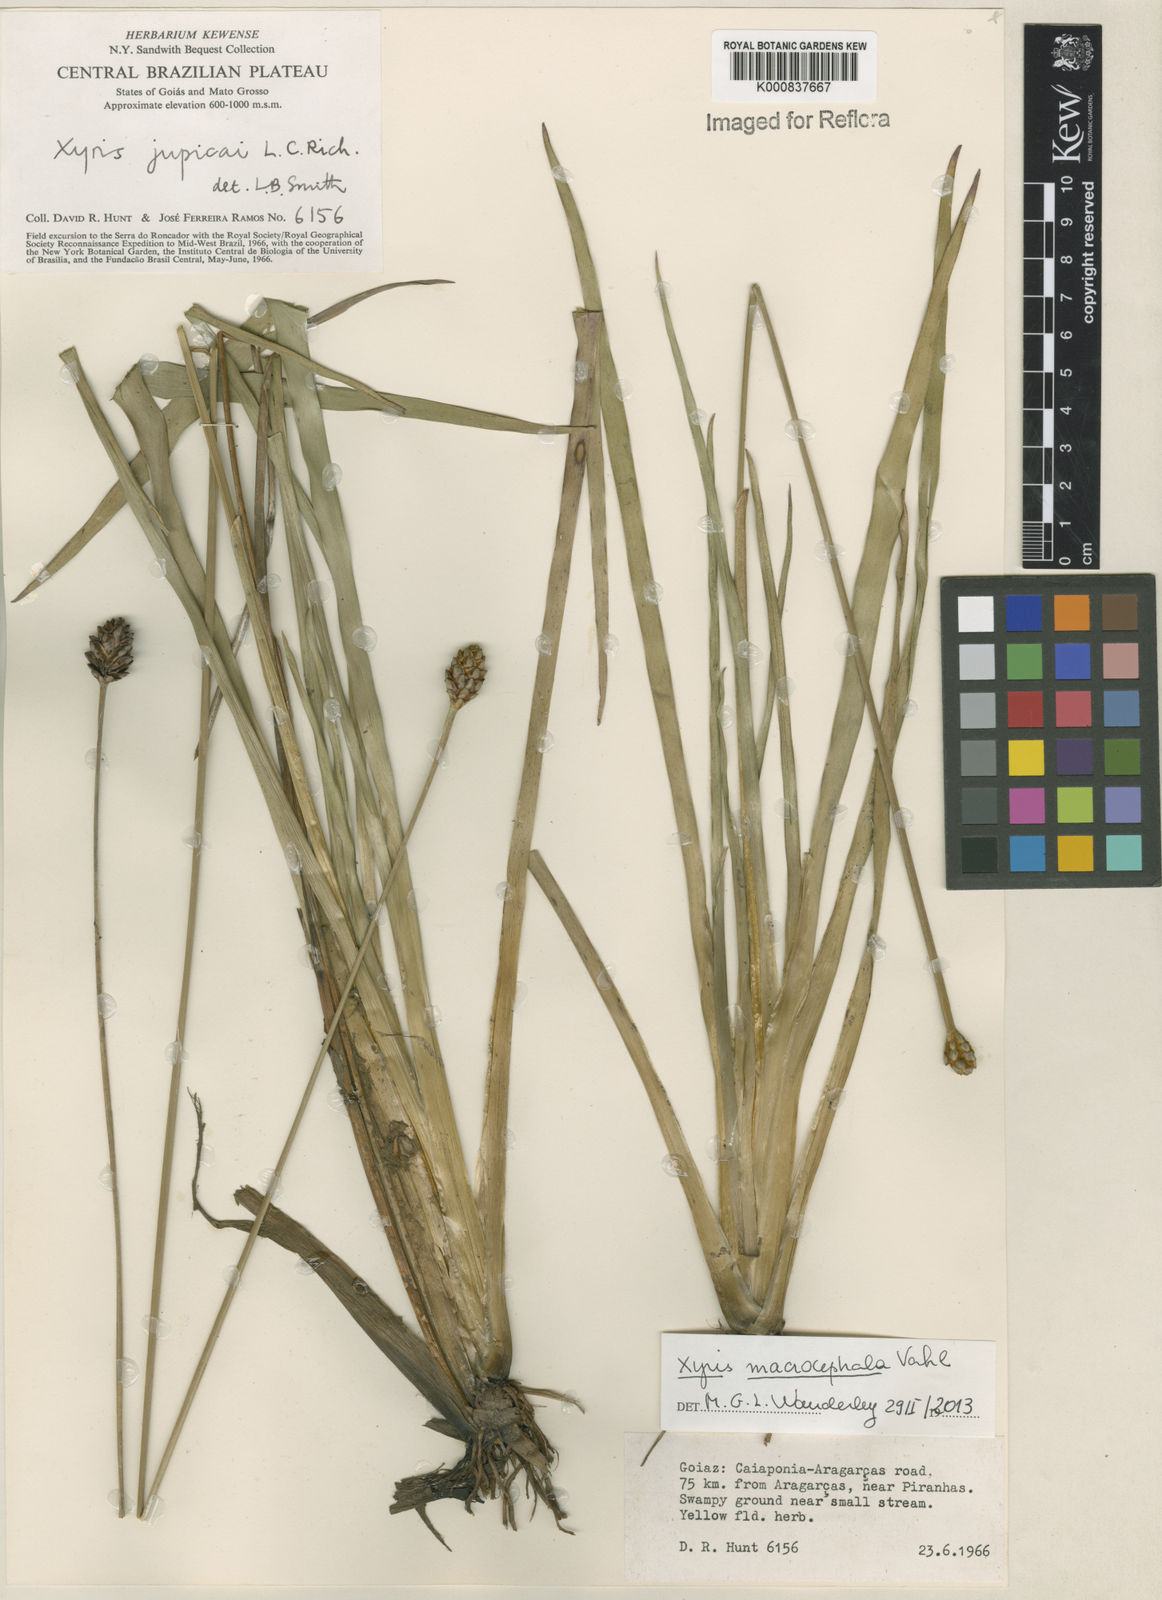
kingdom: Plantae
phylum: Tracheophyta
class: Liliopsida
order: Poales
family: Xyridaceae
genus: Xyris
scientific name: Xyris jupicai
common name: Richard's yelloweyed grass
